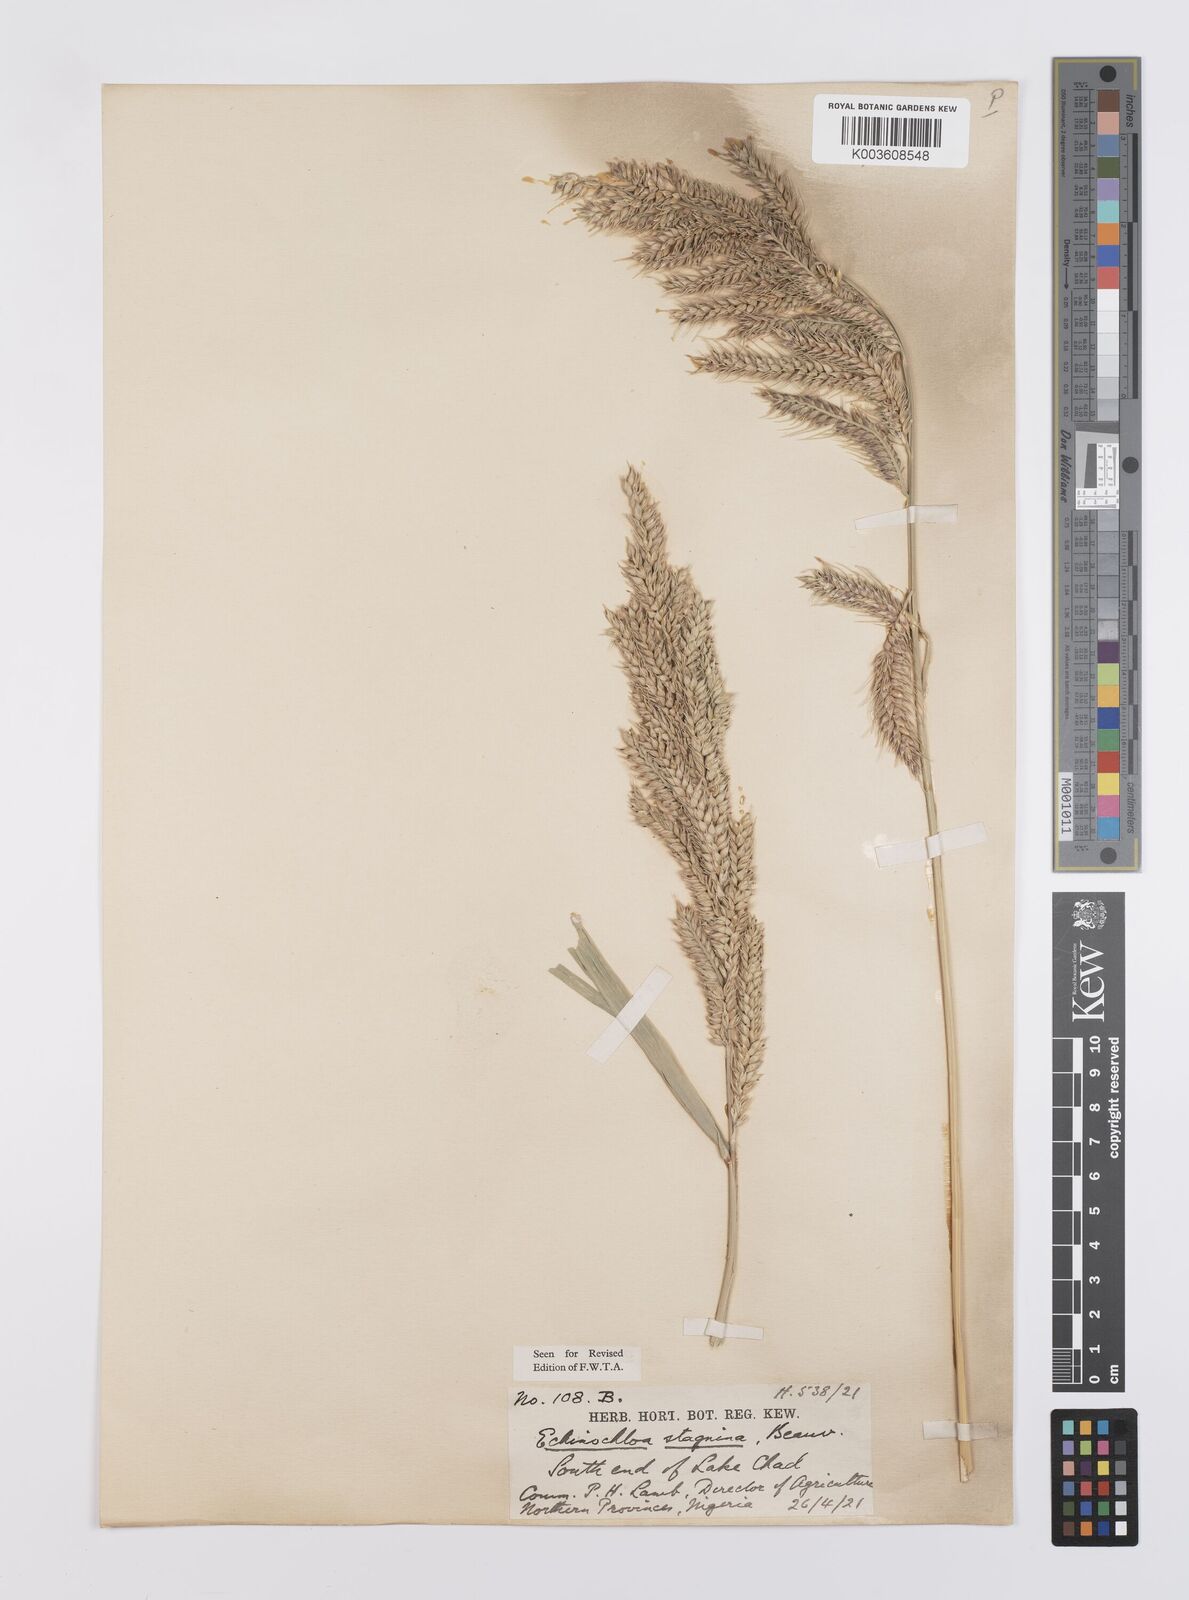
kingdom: Plantae
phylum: Tracheophyta
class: Liliopsida
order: Poales
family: Poaceae
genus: Echinochloa
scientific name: Echinochloa stagnina
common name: Burgu grass
